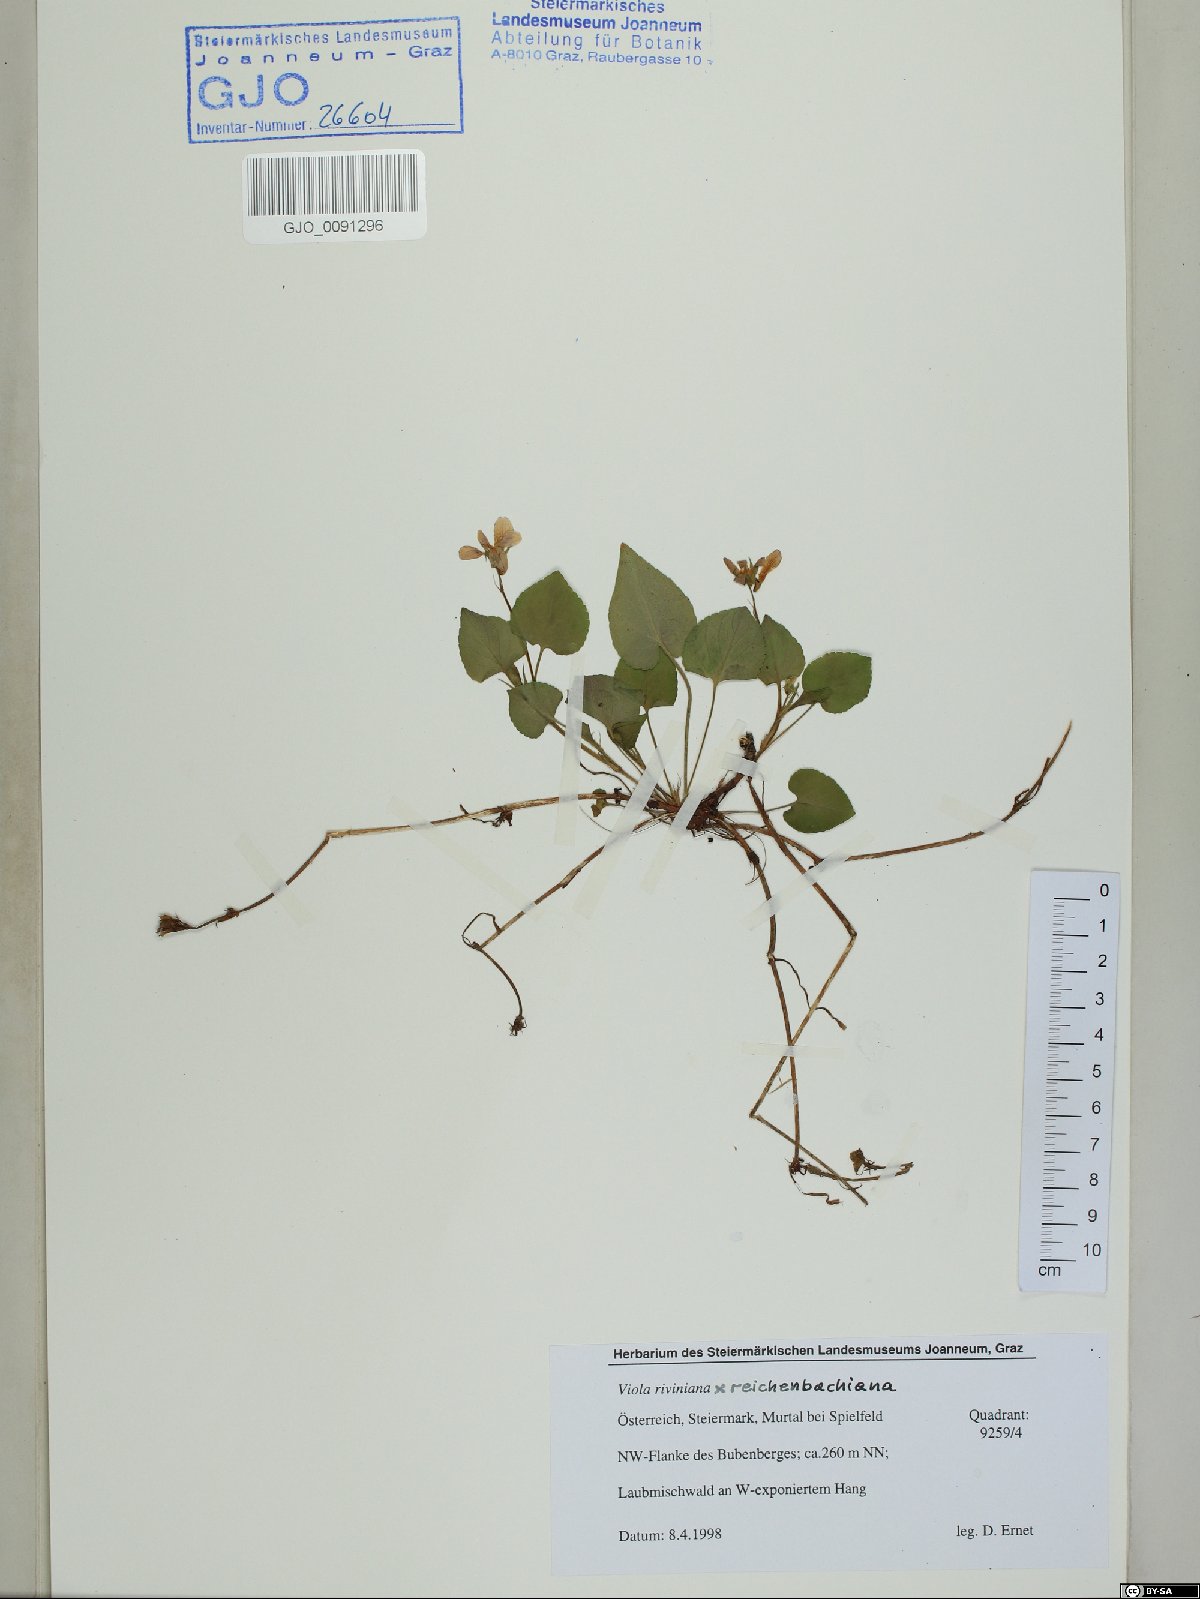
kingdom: Plantae
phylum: Tracheophyta
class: Magnoliopsida
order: Malpighiales
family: Violaceae
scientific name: Violaceae
